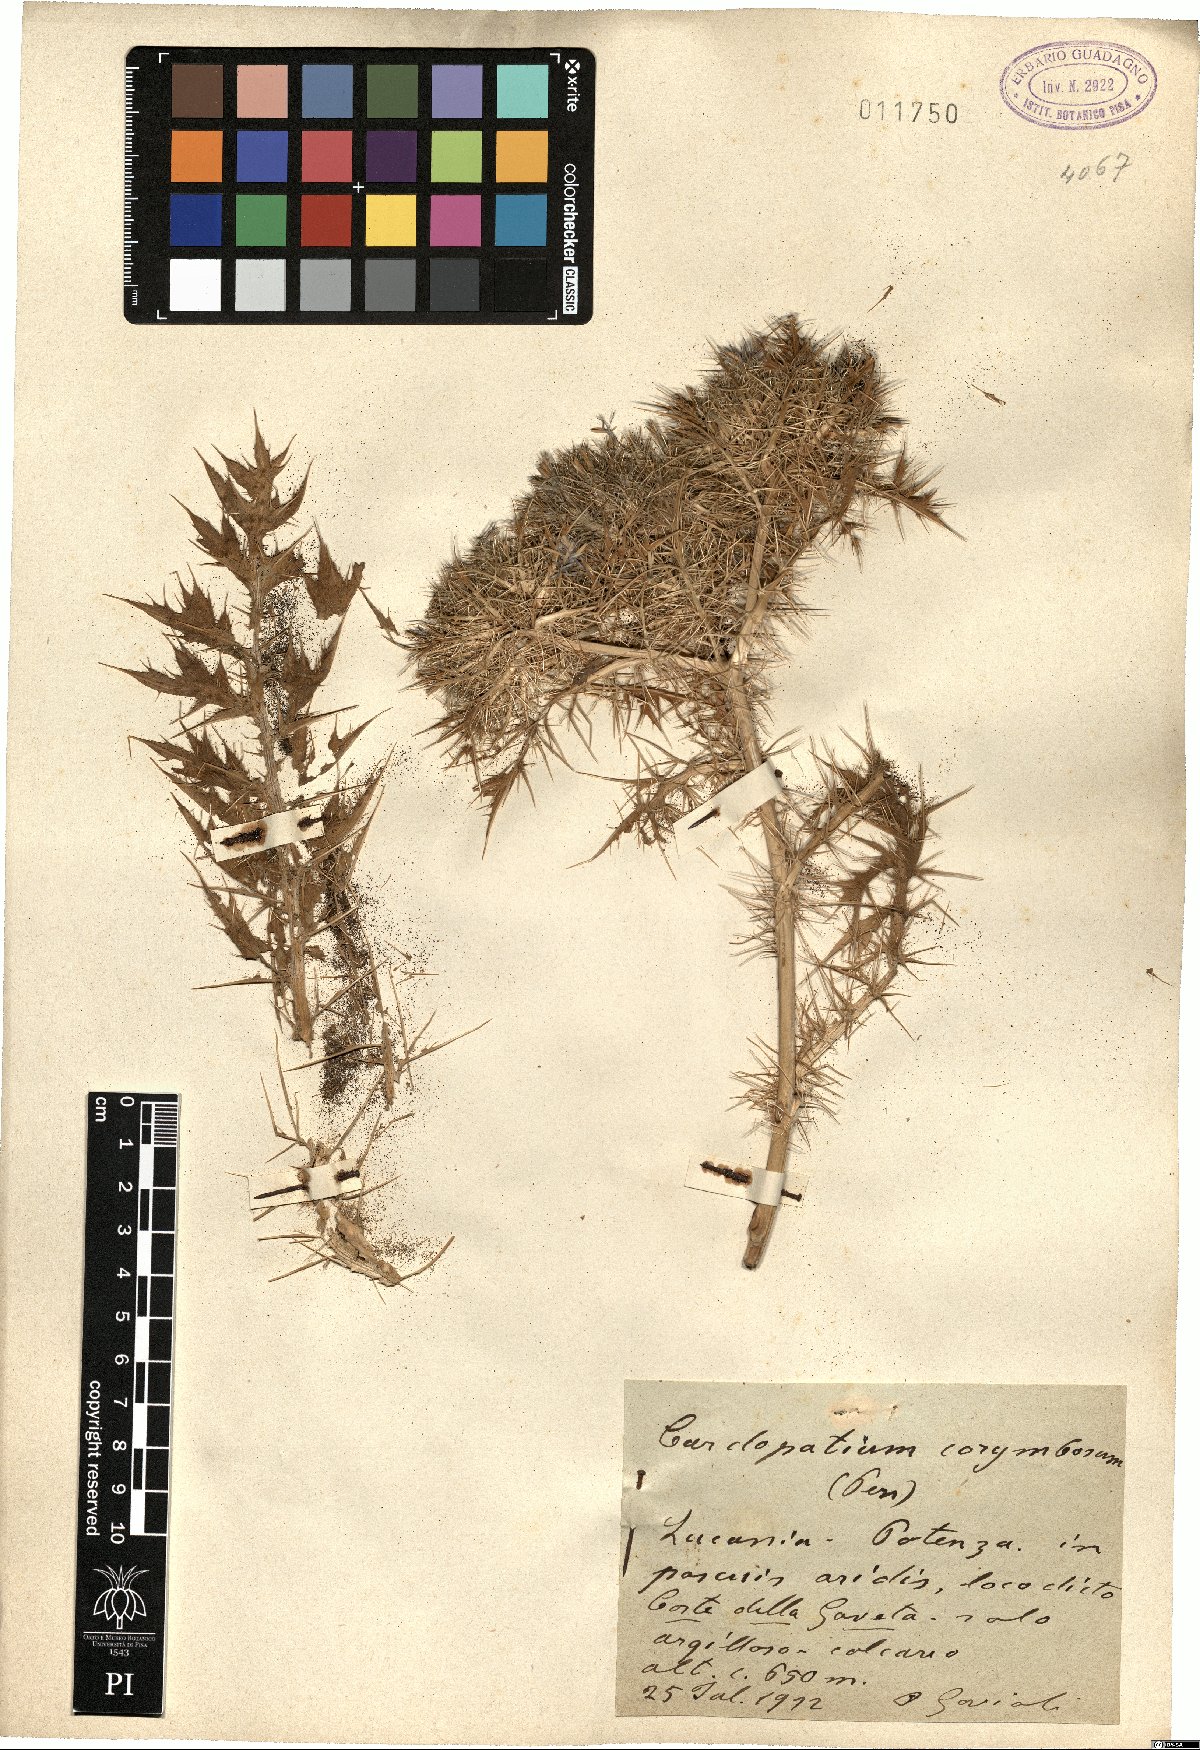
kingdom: Plantae
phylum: Tracheophyta
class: Magnoliopsida
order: Asterales
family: Asteraceae
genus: Cardopatium
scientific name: Cardopatium corymbosum
